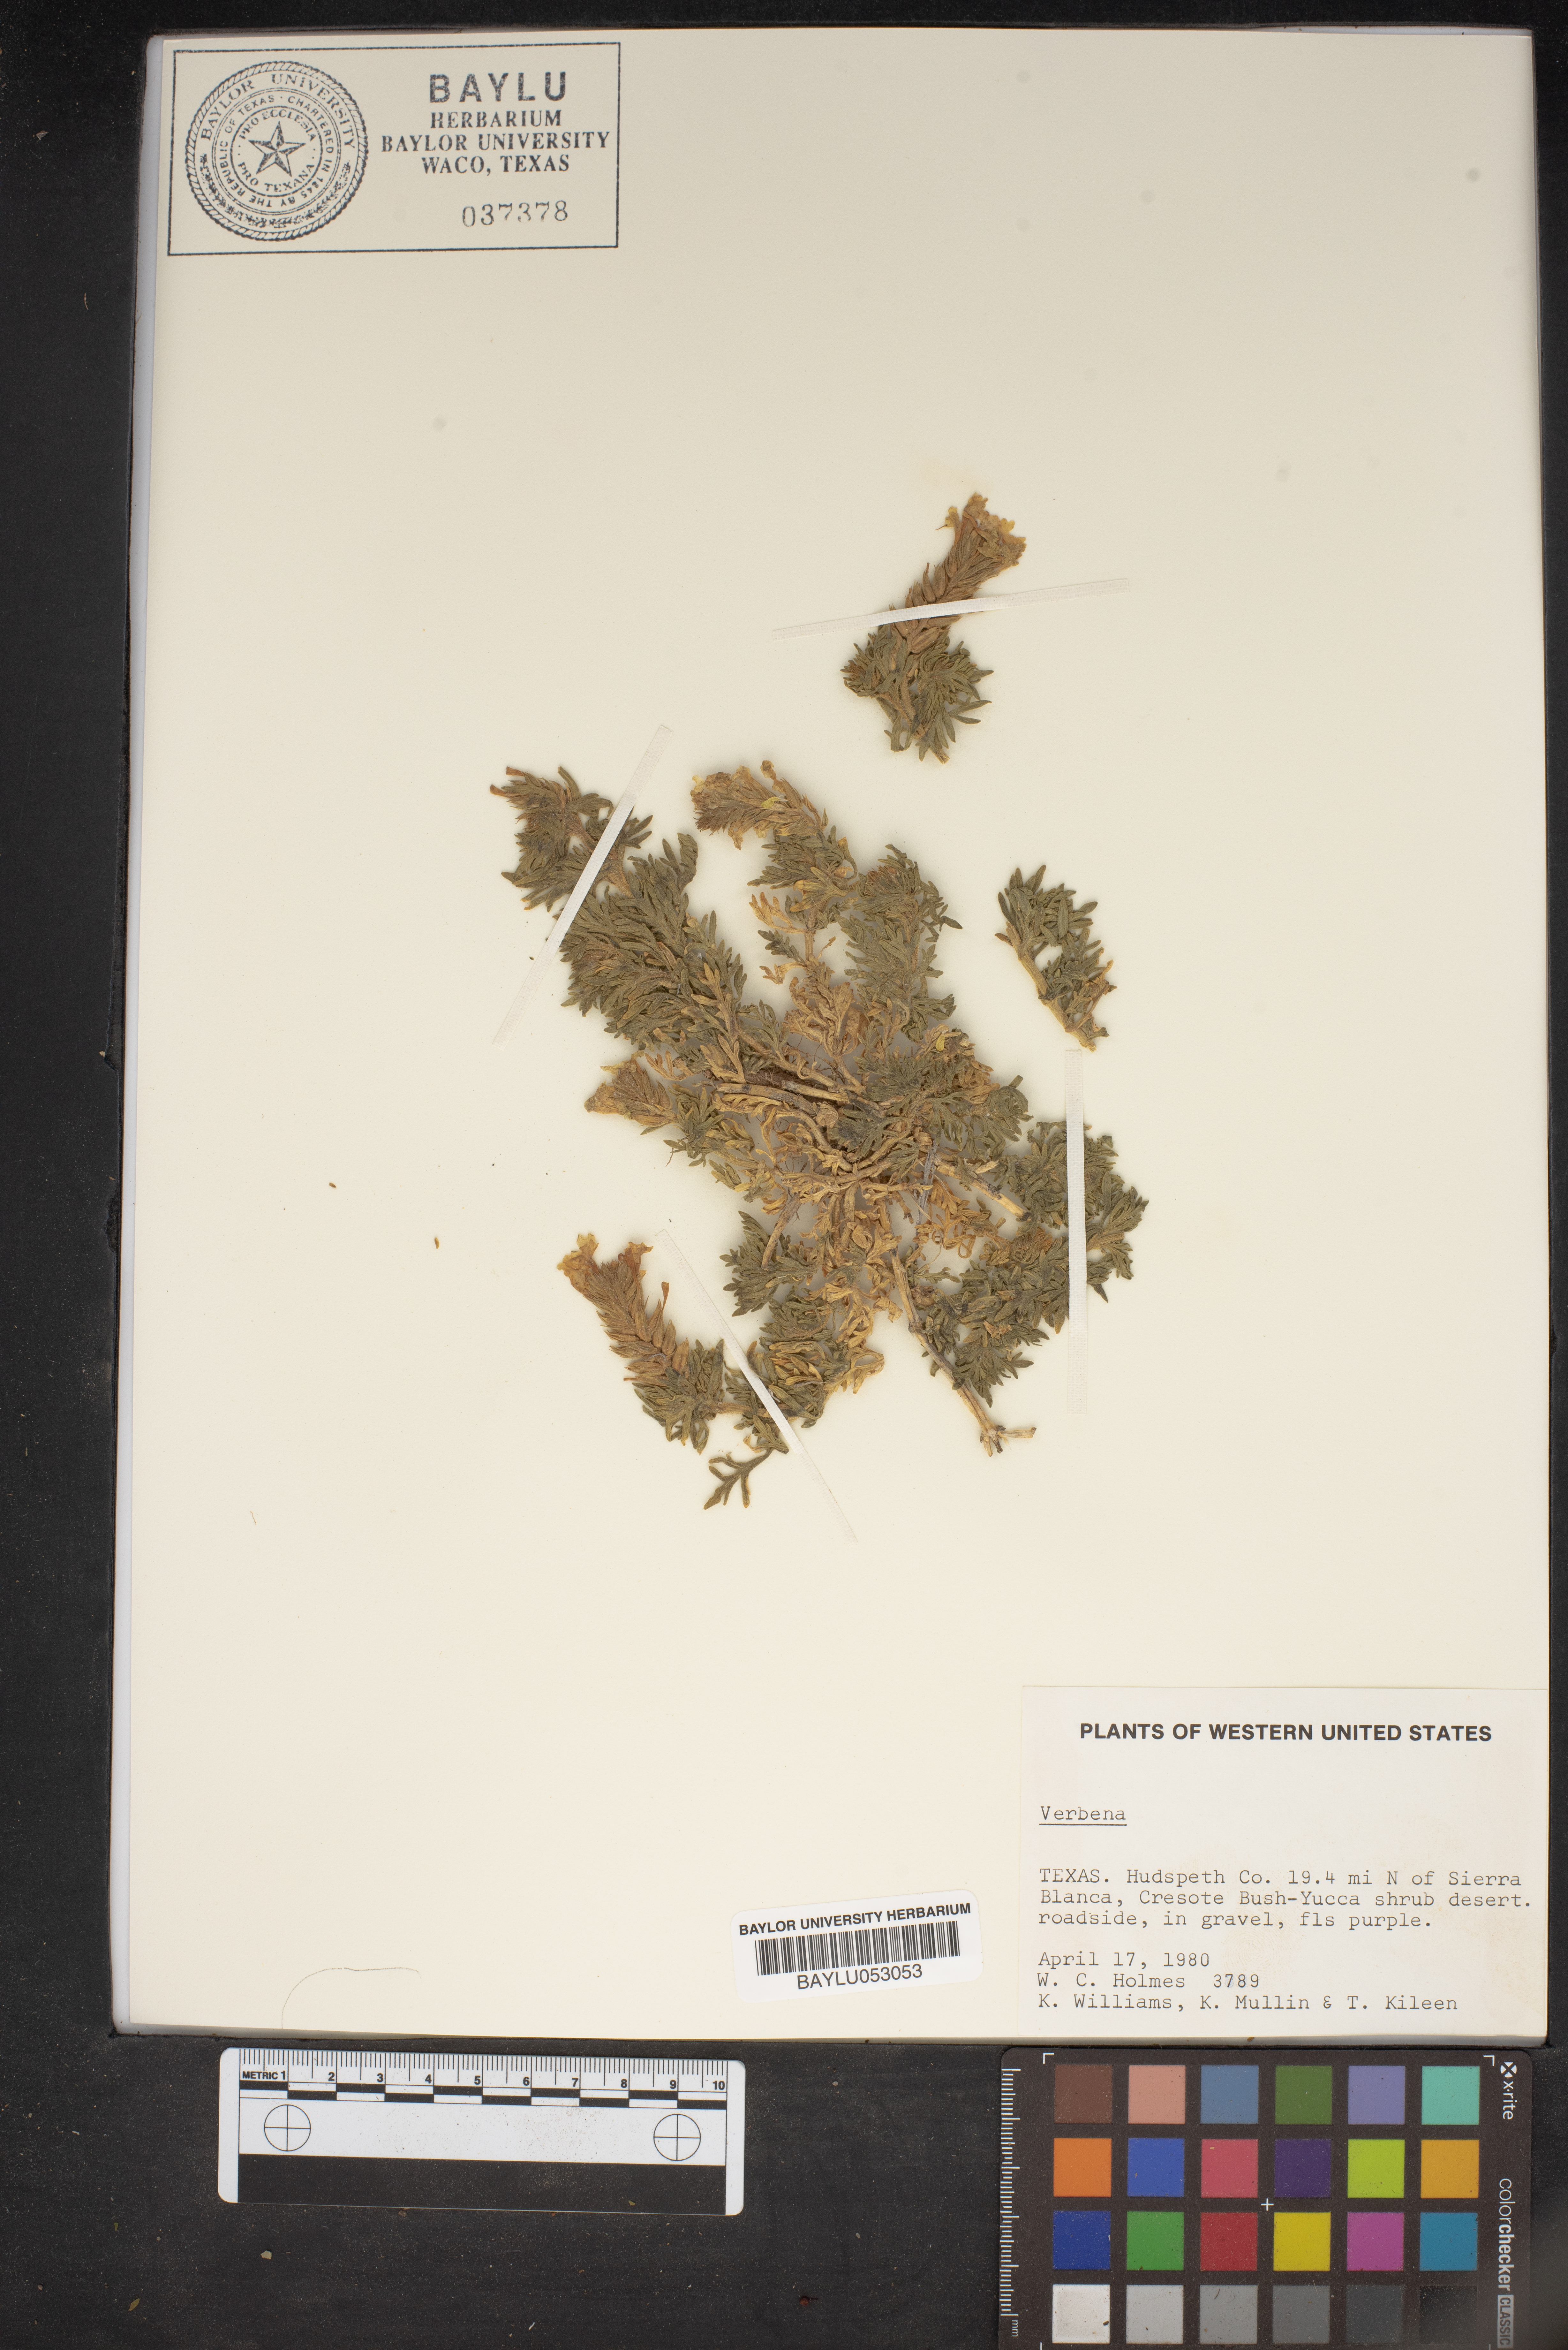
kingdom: Plantae
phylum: Tracheophyta
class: Magnoliopsida
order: Lamiales
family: Verbenaceae
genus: Verbena
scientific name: Verbena
